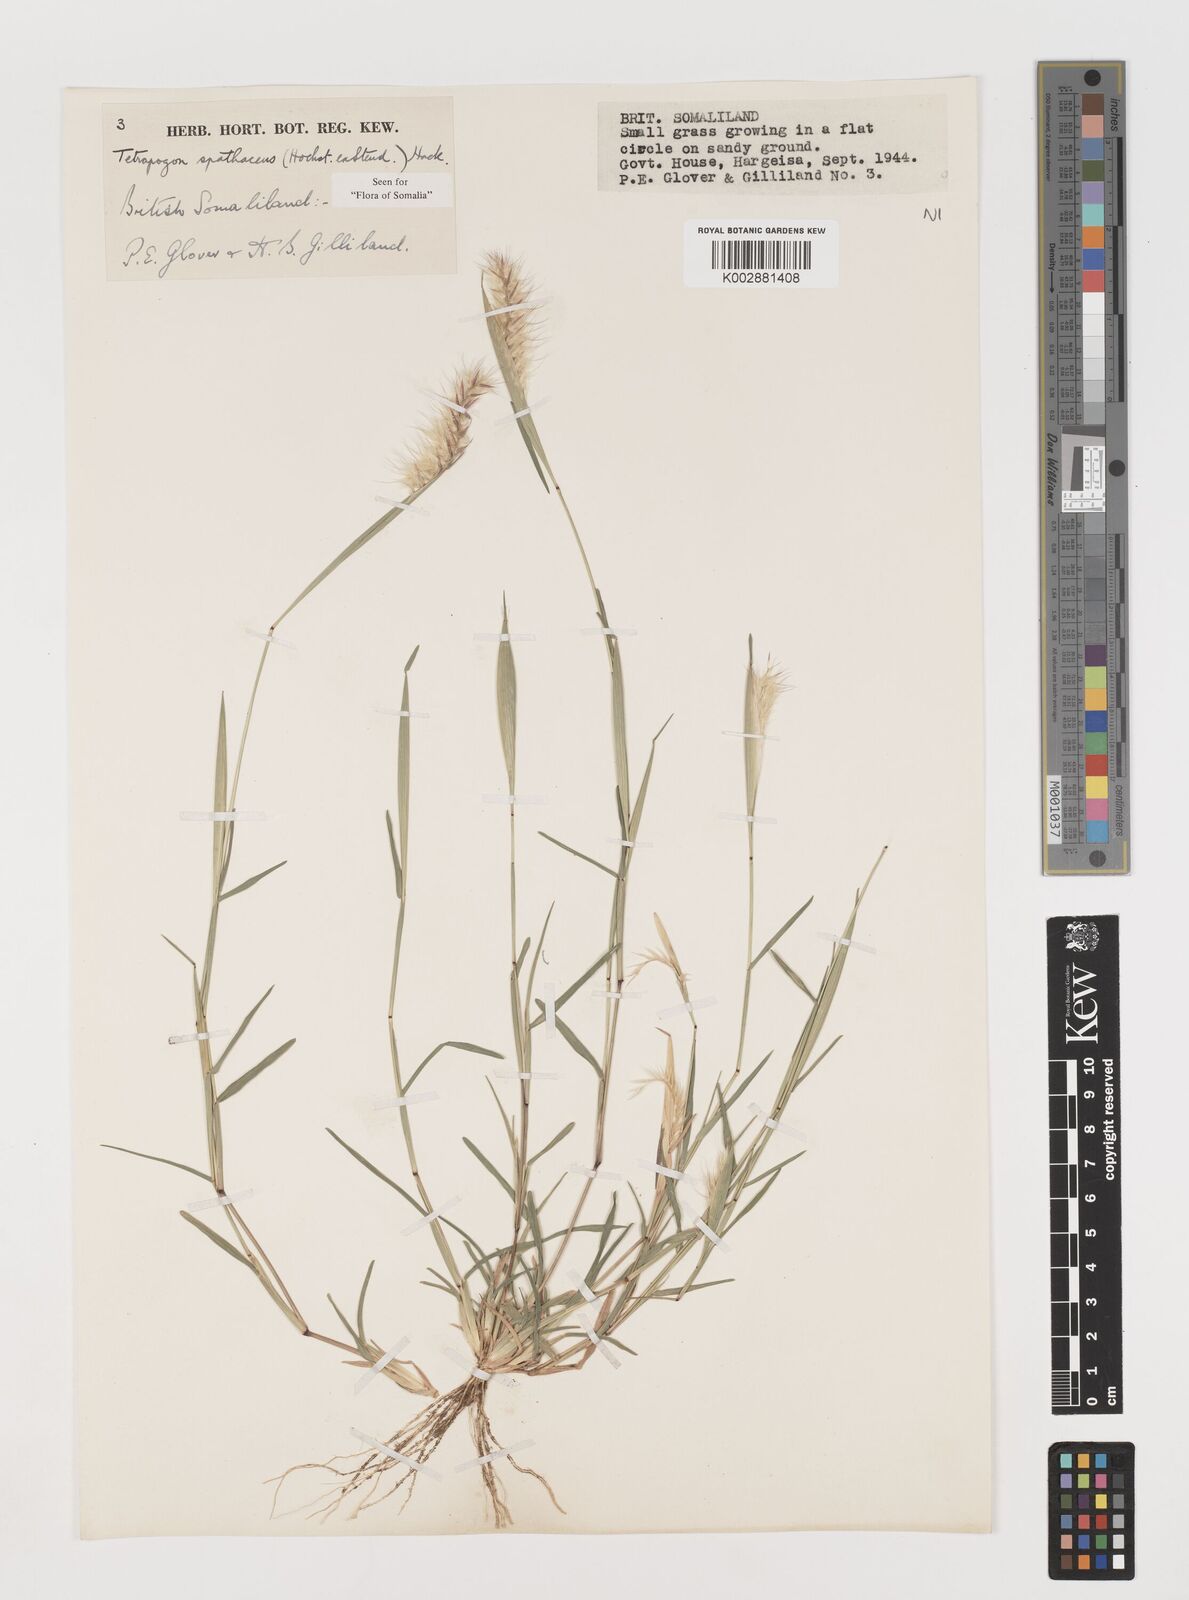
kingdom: Plantae
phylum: Tracheophyta
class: Liliopsida
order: Poales
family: Poaceae
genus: Tetrapogon
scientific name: Tetrapogon cenchriformis
